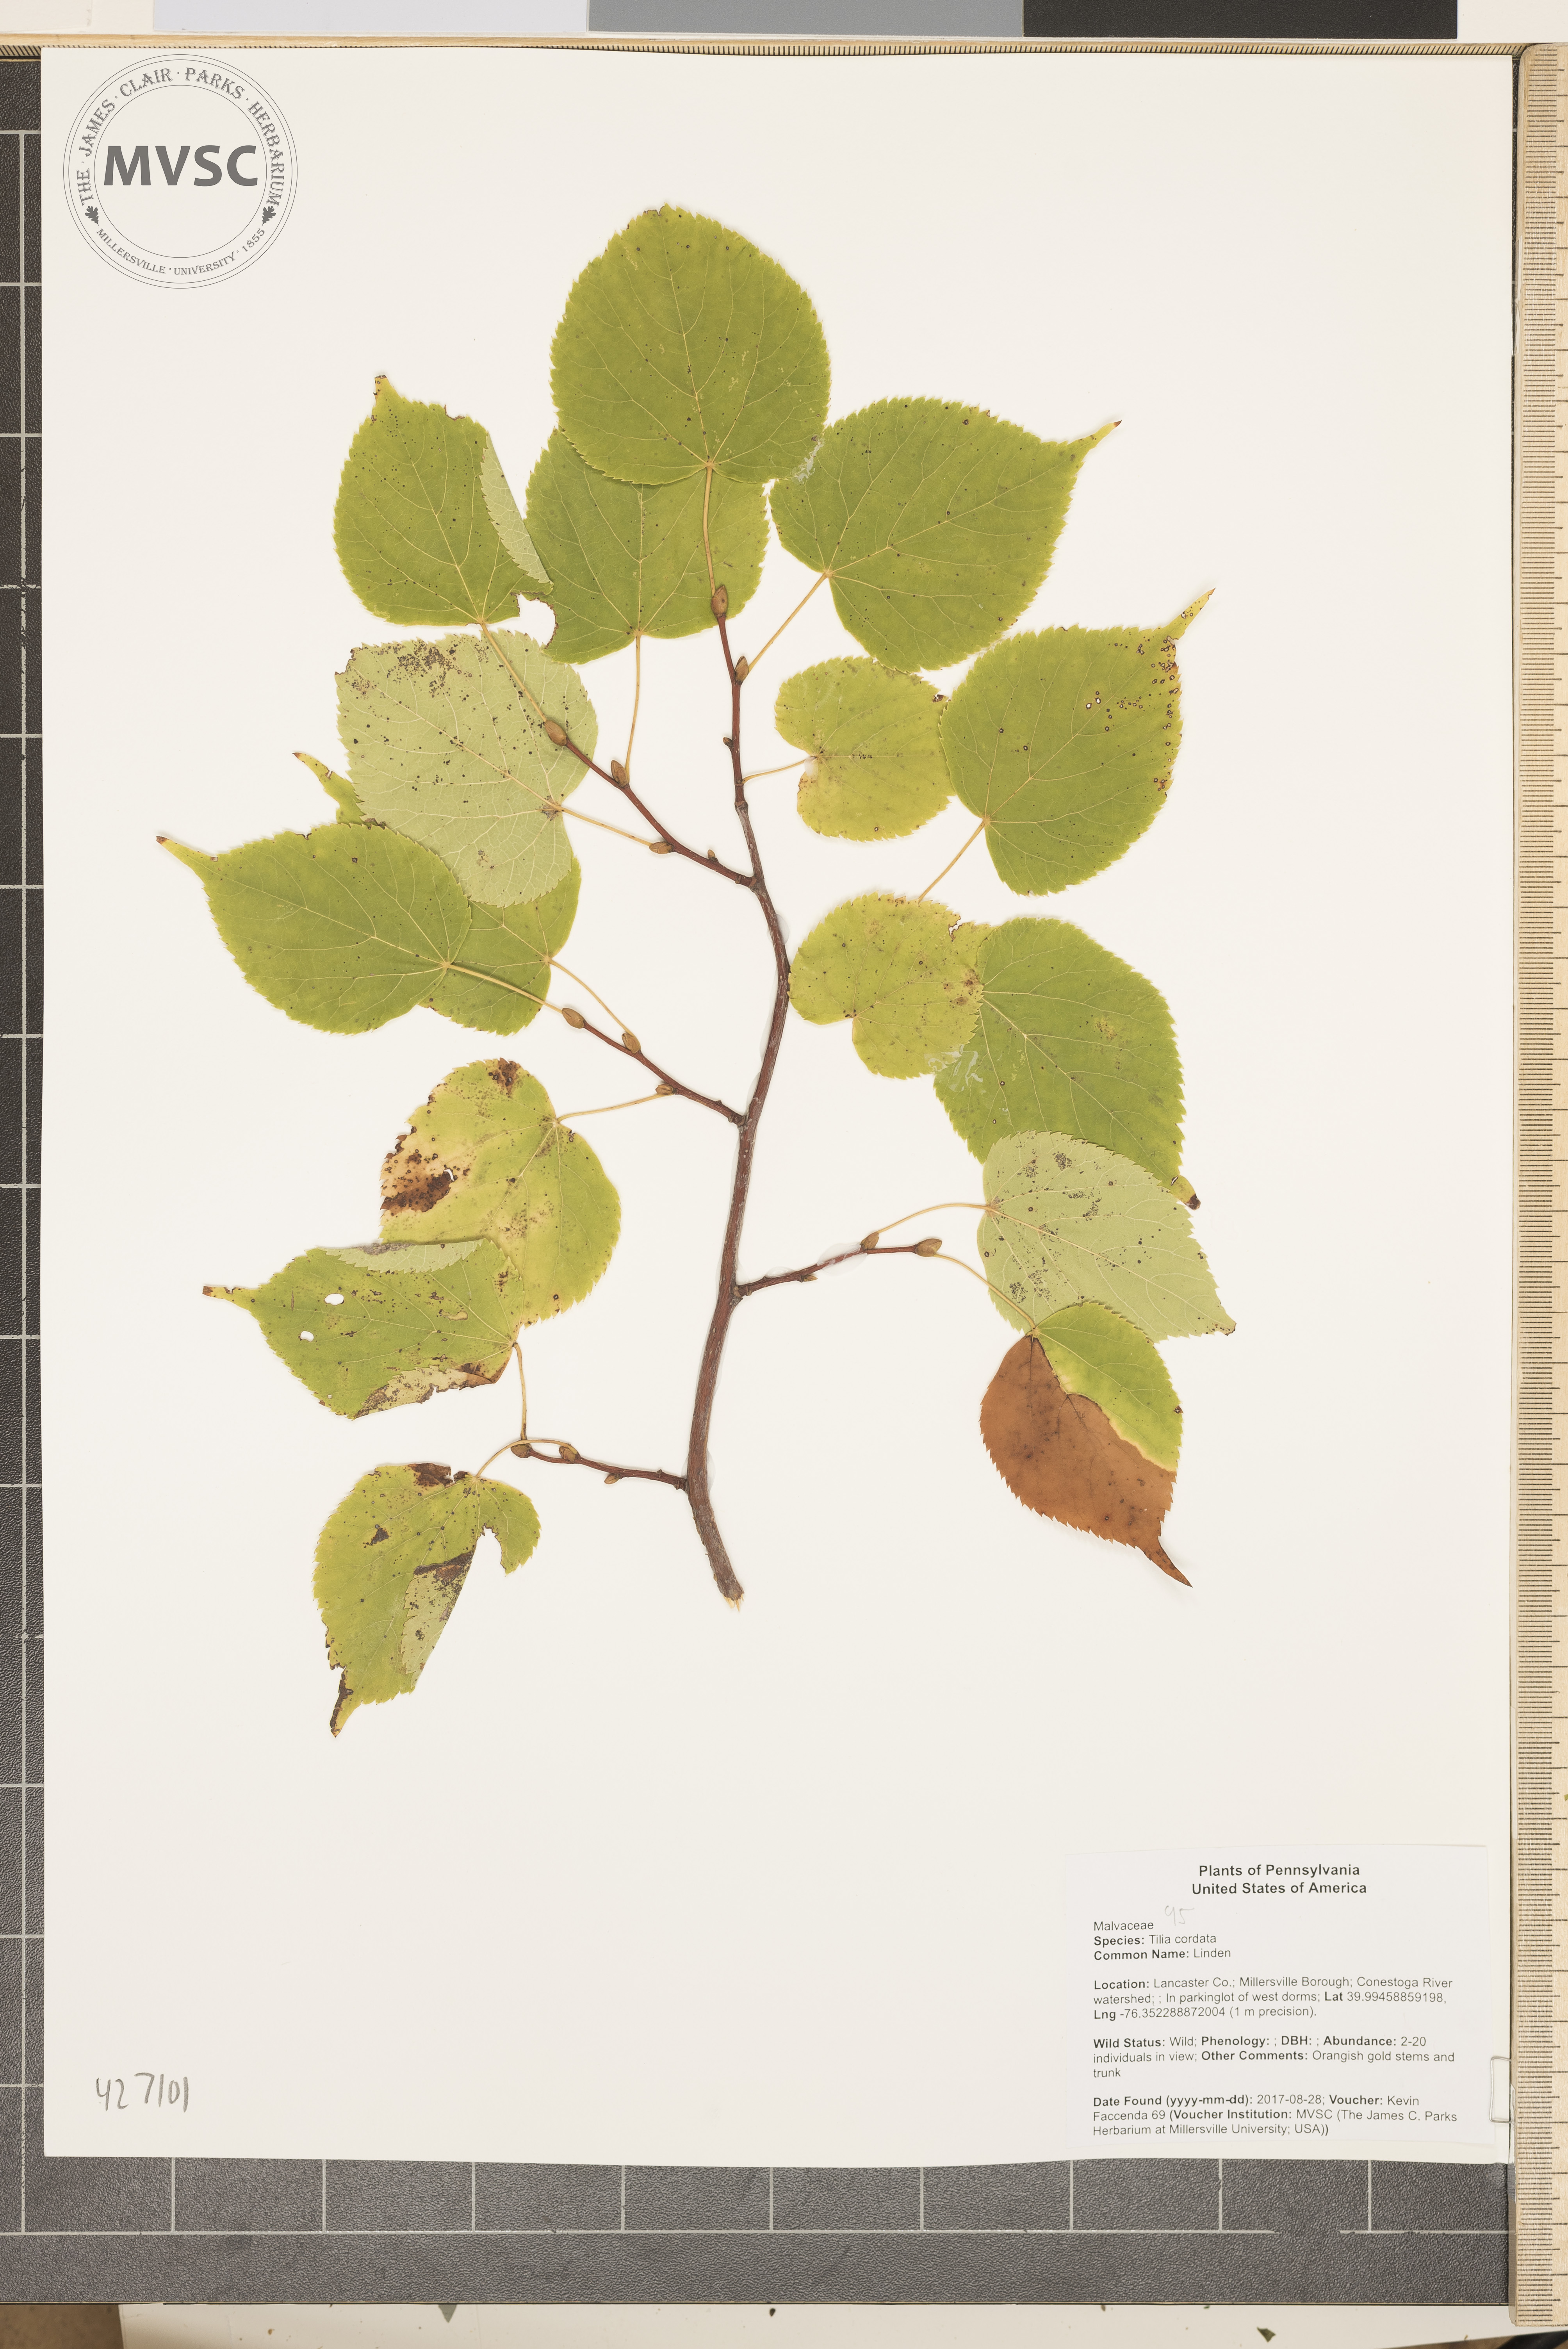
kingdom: Plantae
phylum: Tracheophyta
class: Magnoliopsida
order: Malvales
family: Malvaceae
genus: Tilia
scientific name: Tilia cordata
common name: Small-leaved lime
